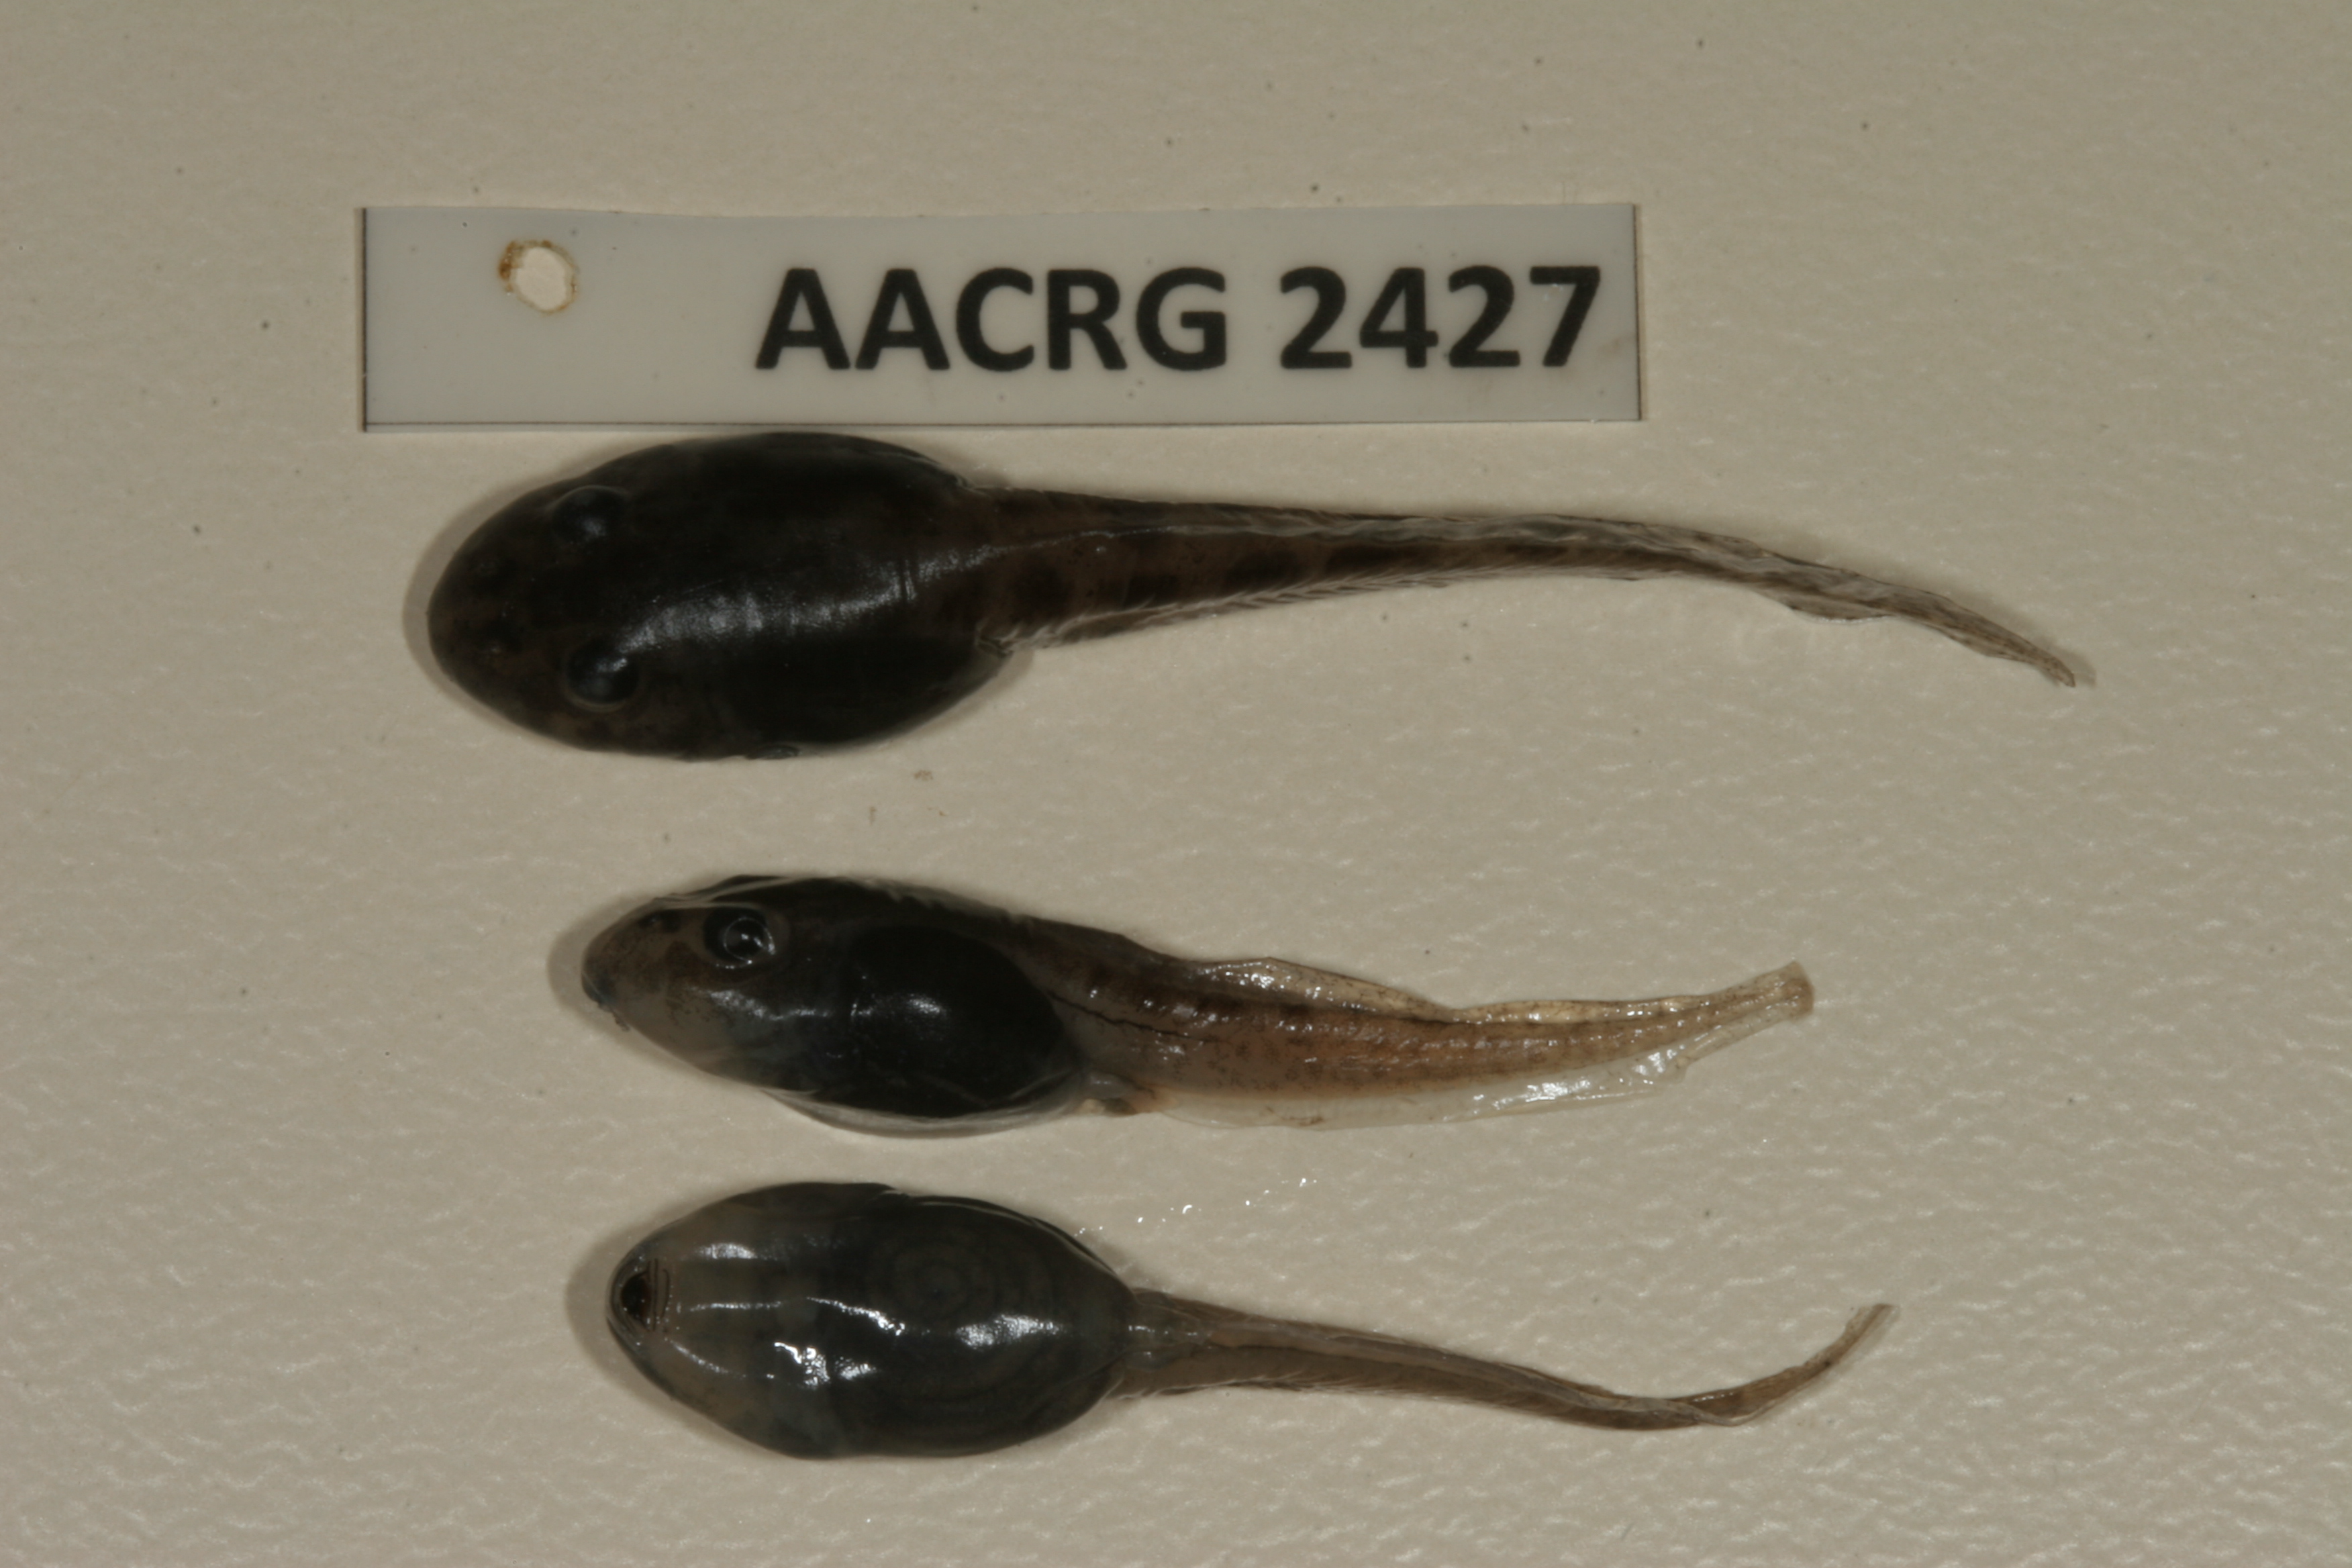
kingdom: Animalia
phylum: Chordata
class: Amphibia
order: Anura
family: Hyperoliidae
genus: Hyperolius
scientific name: Hyperolius horstockii
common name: Arum lily frog
